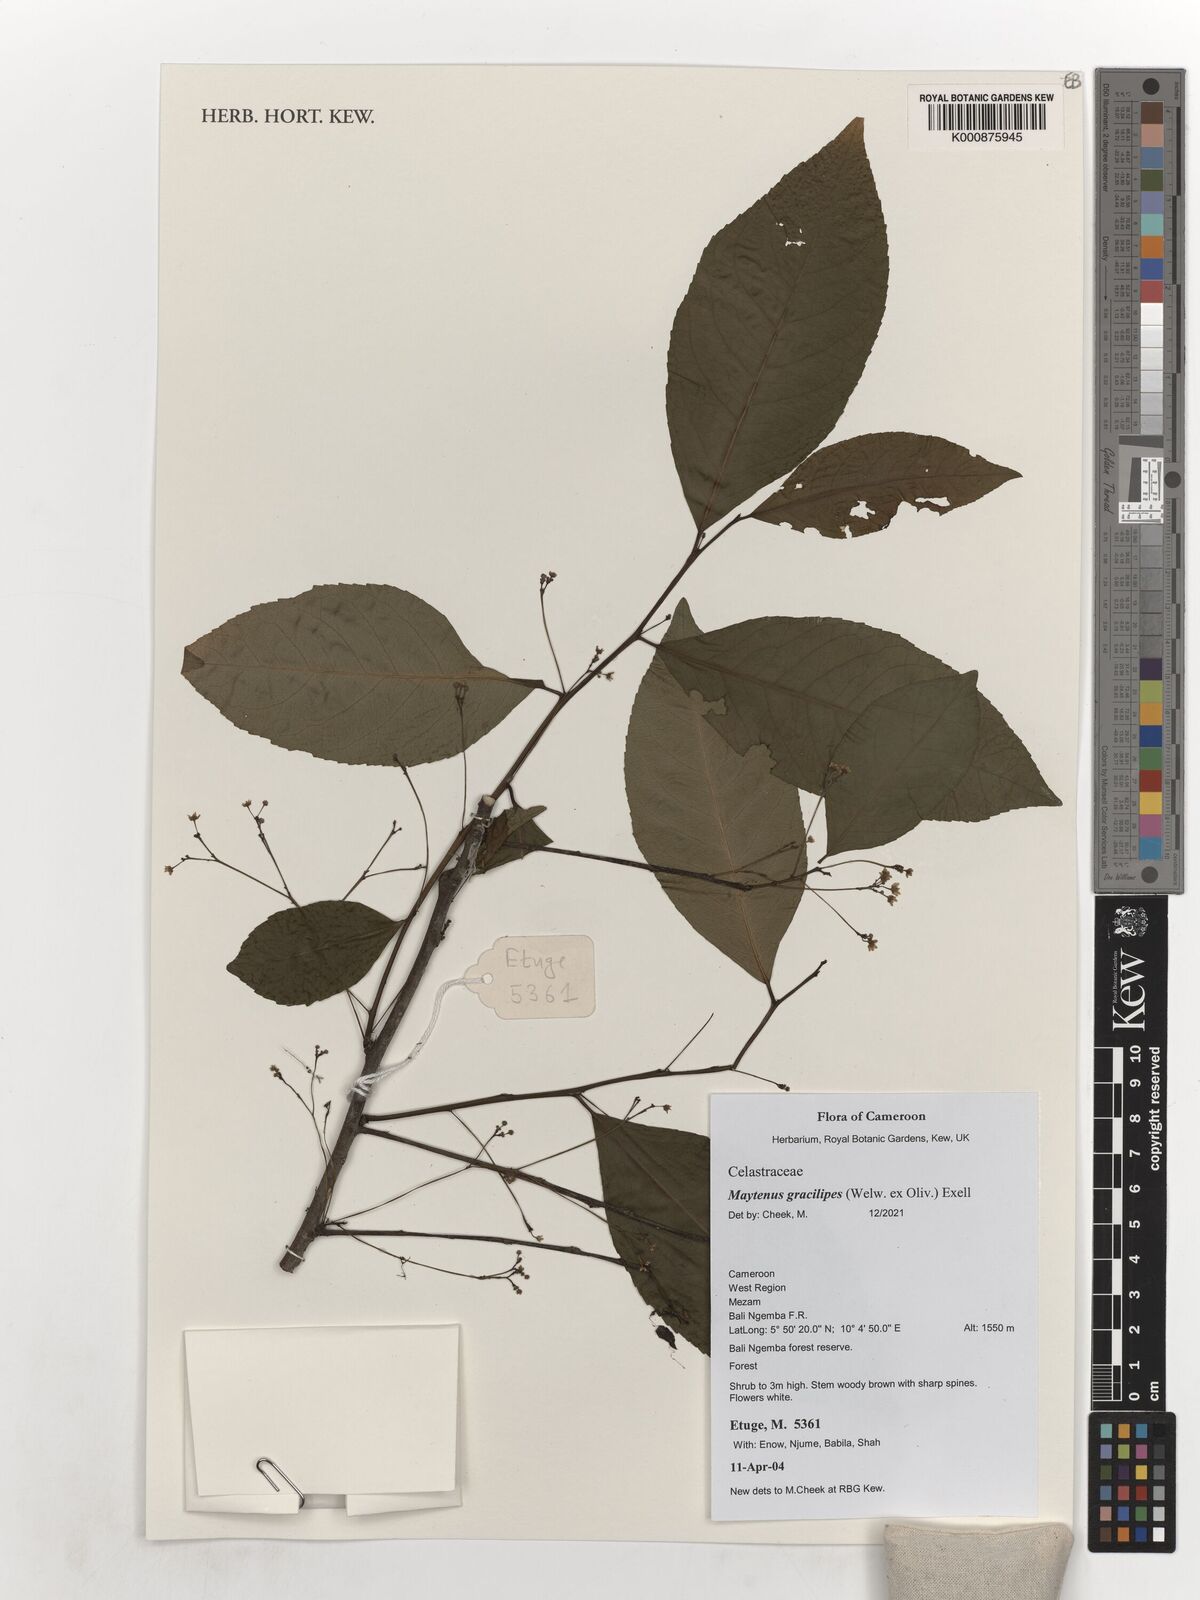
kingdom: Plantae
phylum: Tracheophyta
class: Magnoliopsida
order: Celastrales
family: Celastraceae
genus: Gymnosporia
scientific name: Gymnosporia gracilipes
